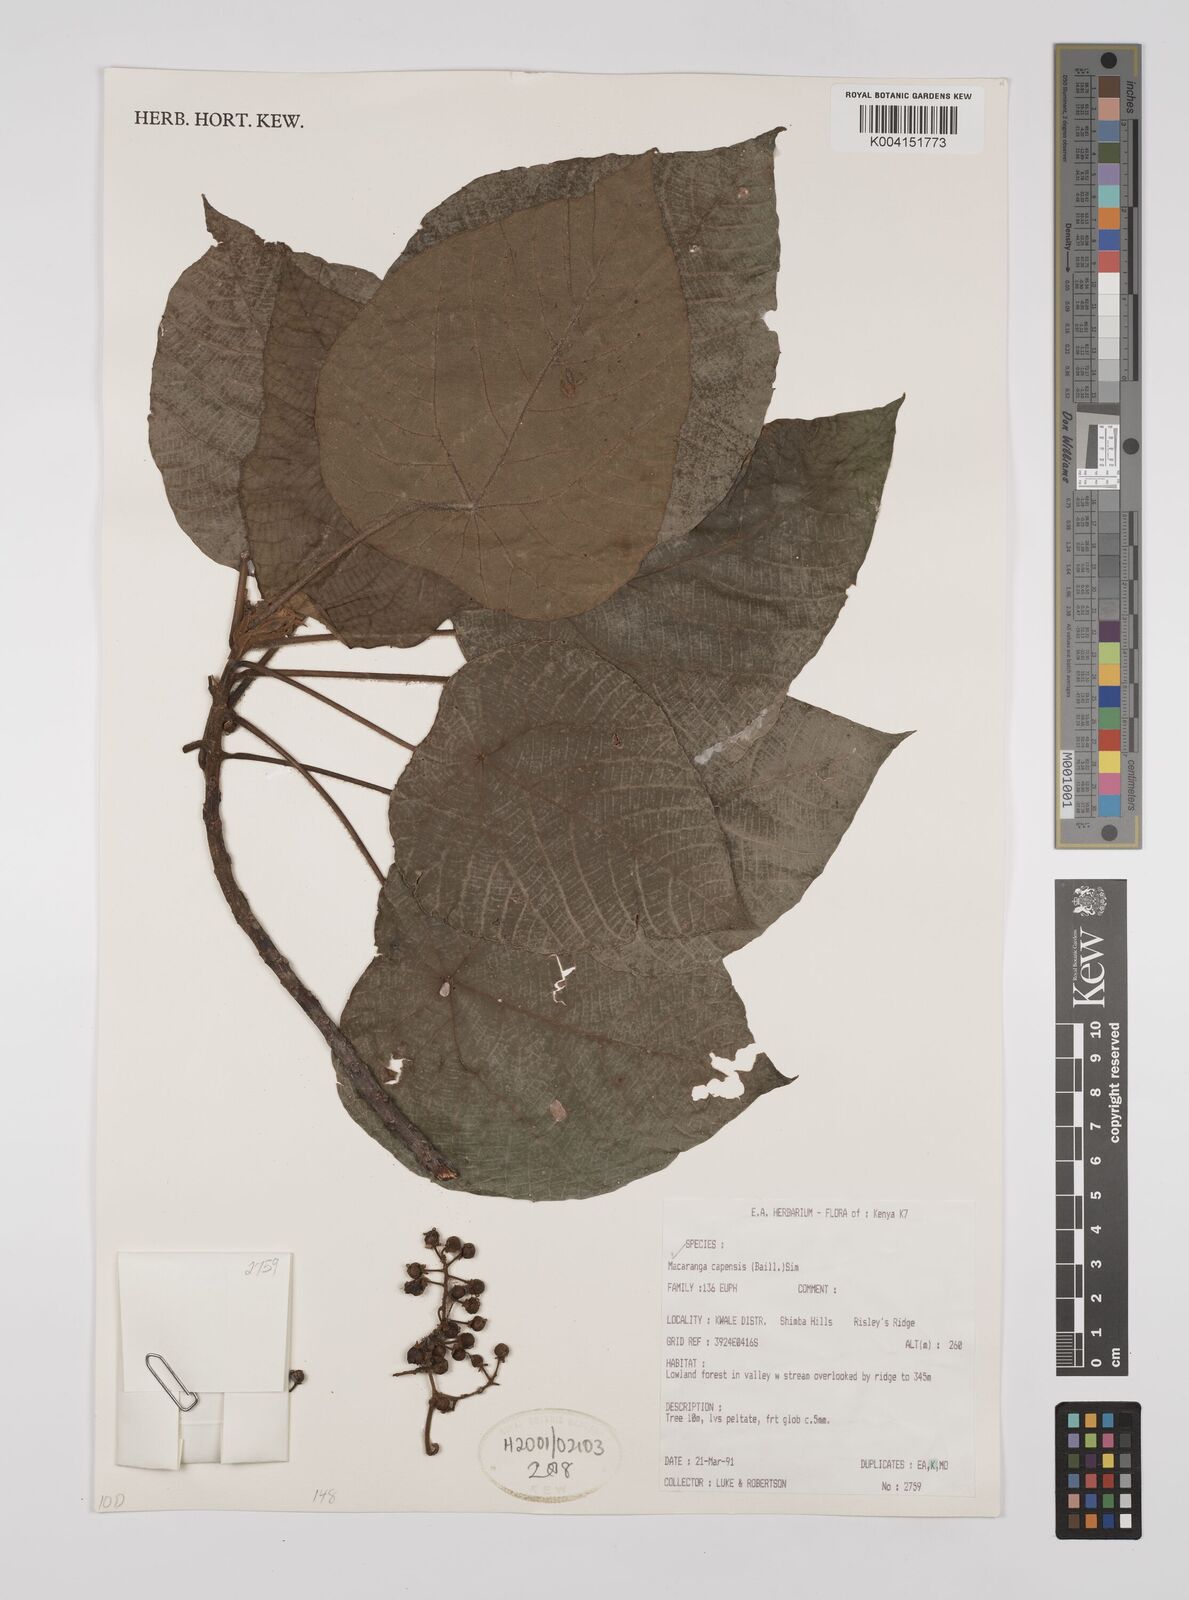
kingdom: Plantae
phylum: Tracheophyta
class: Magnoliopsida
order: Malpighiales
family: Euphorbiaceae
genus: Macaranga
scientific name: Macaranga capensis
